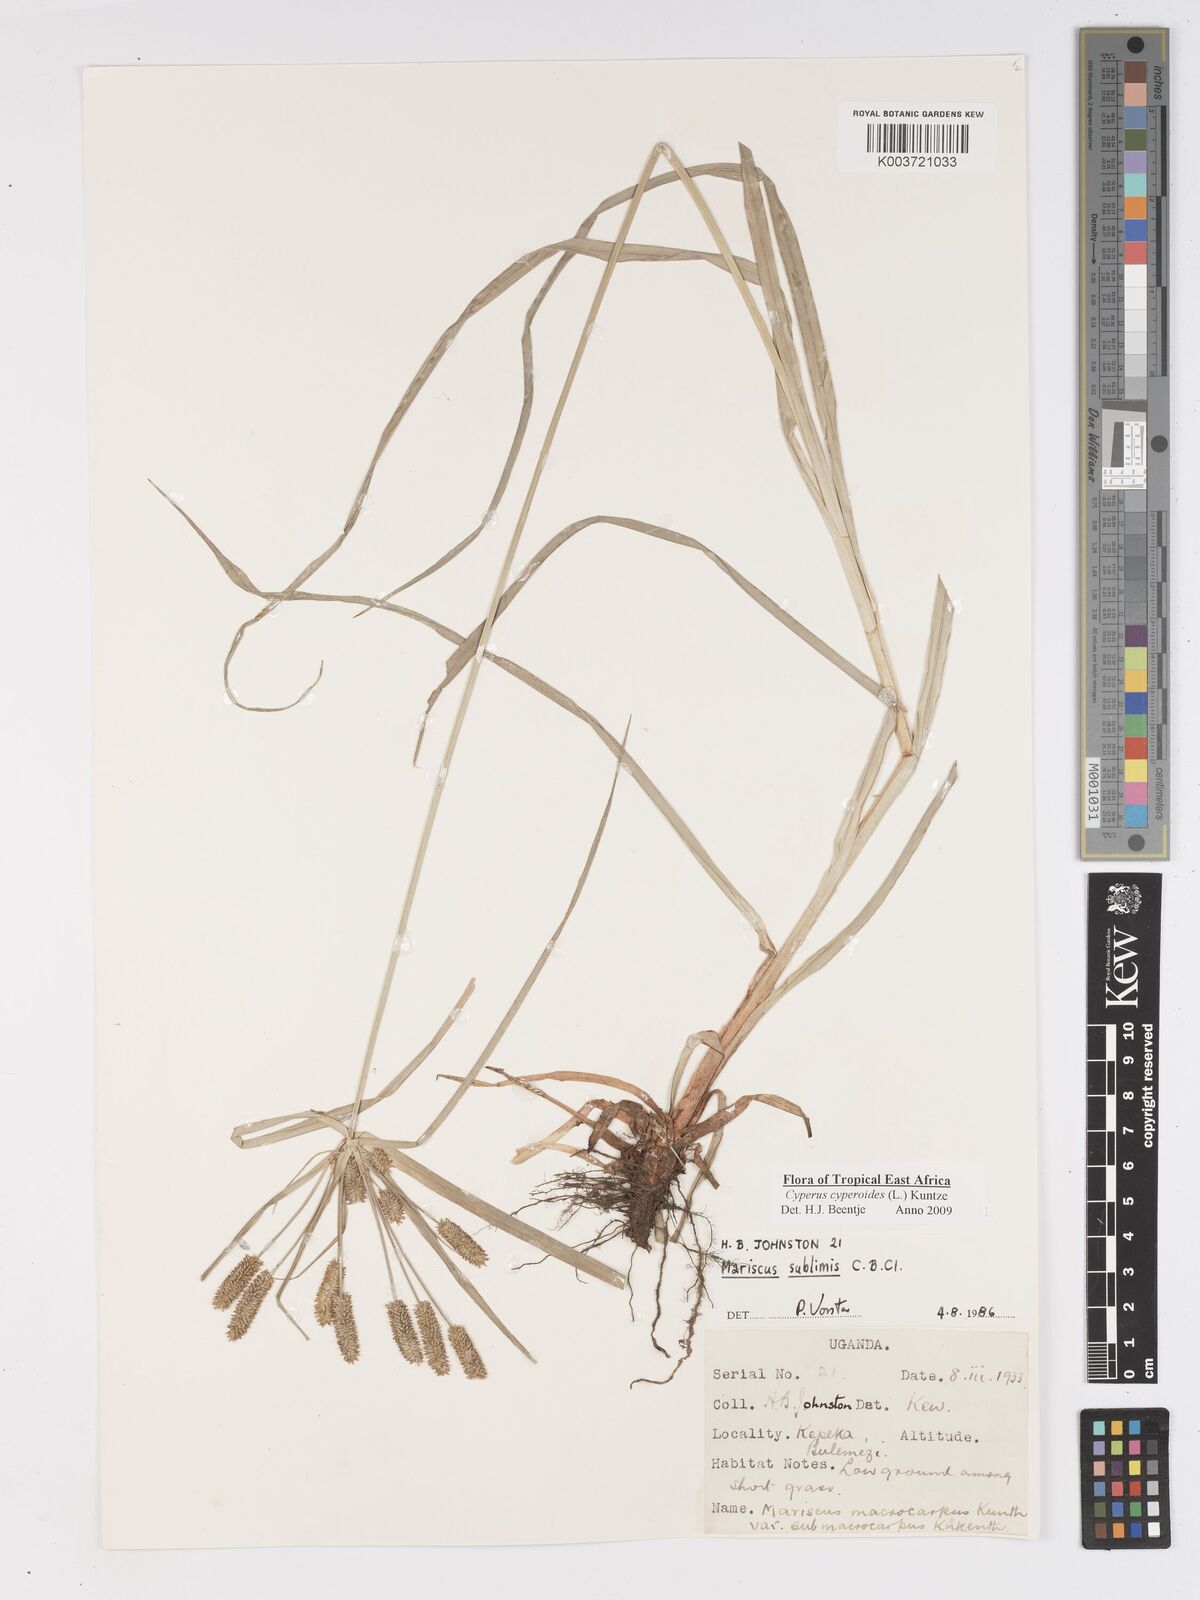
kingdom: Plantae
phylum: Tracheophyta
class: Liliopsida
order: Poales
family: Cyperaceae
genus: Cyperus
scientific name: Cyperus cyperoides
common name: Pacific island flat sedge
